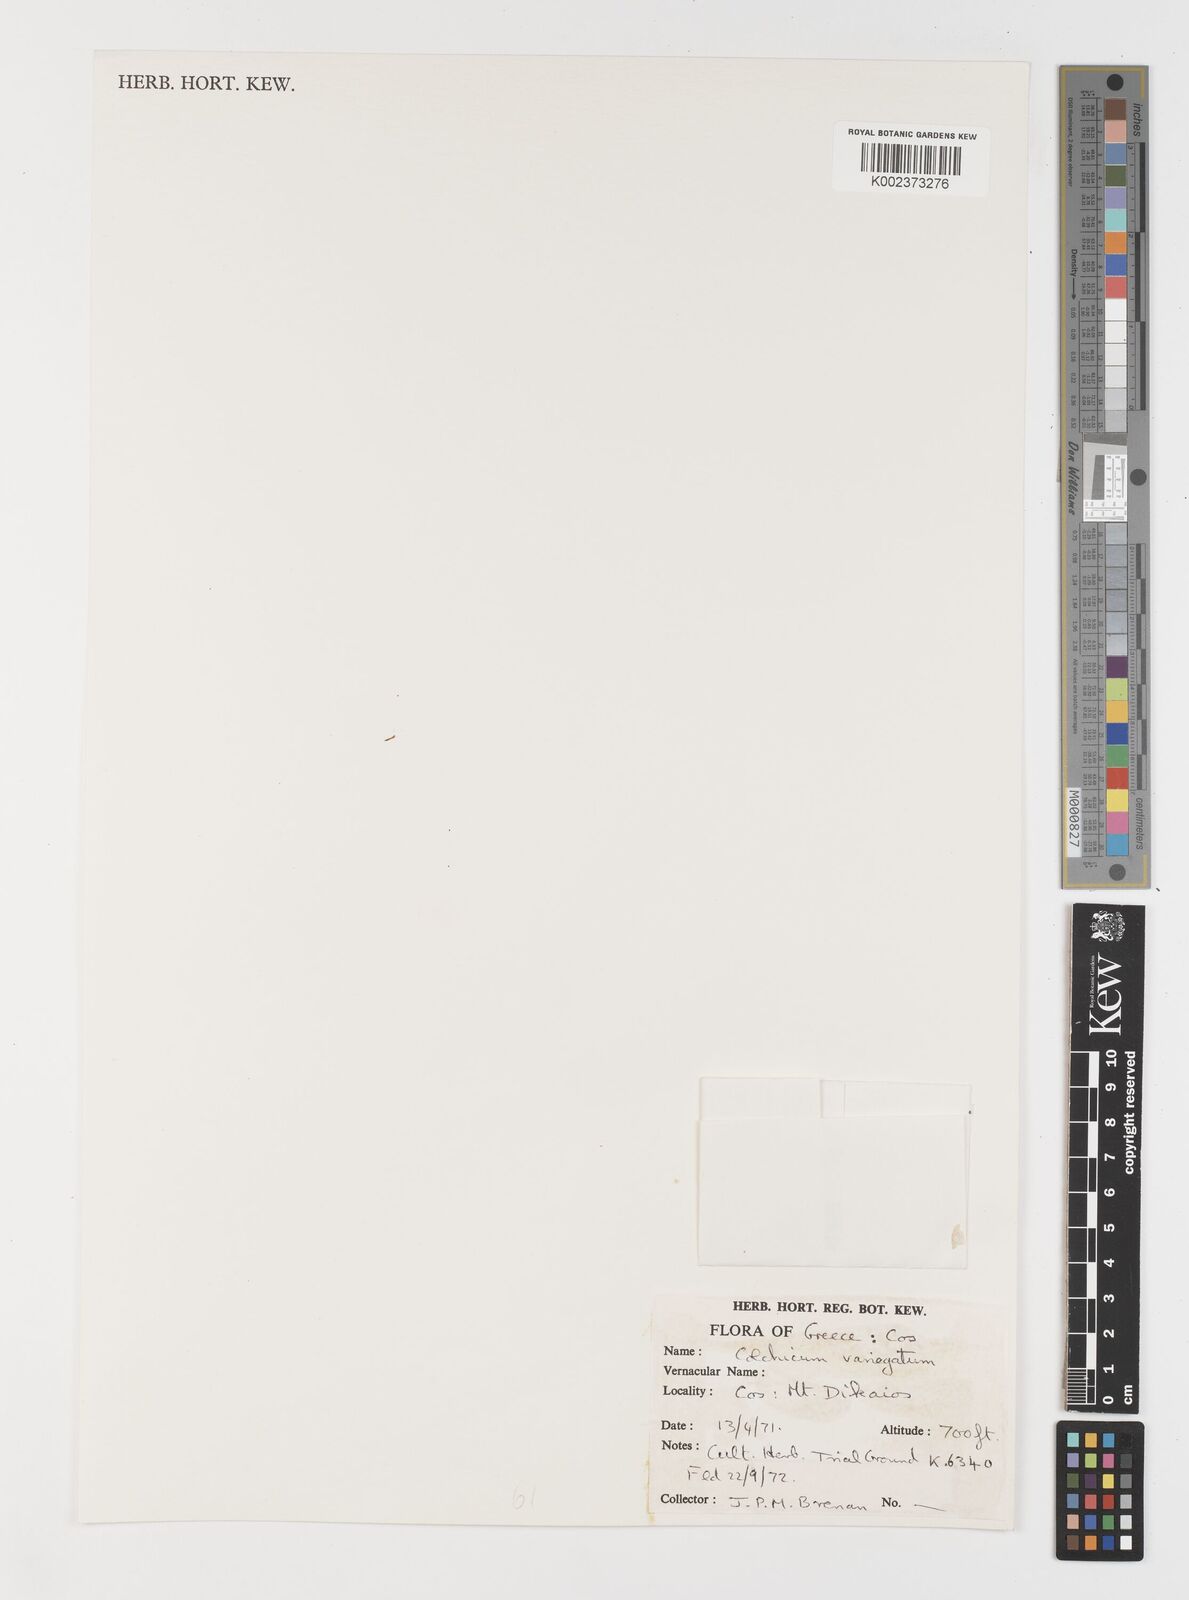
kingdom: Plantae
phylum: Tracheophyta
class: Liliopsida
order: Liliales
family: Colchicaceae
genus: Colchicum
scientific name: Colchicum variegatum
